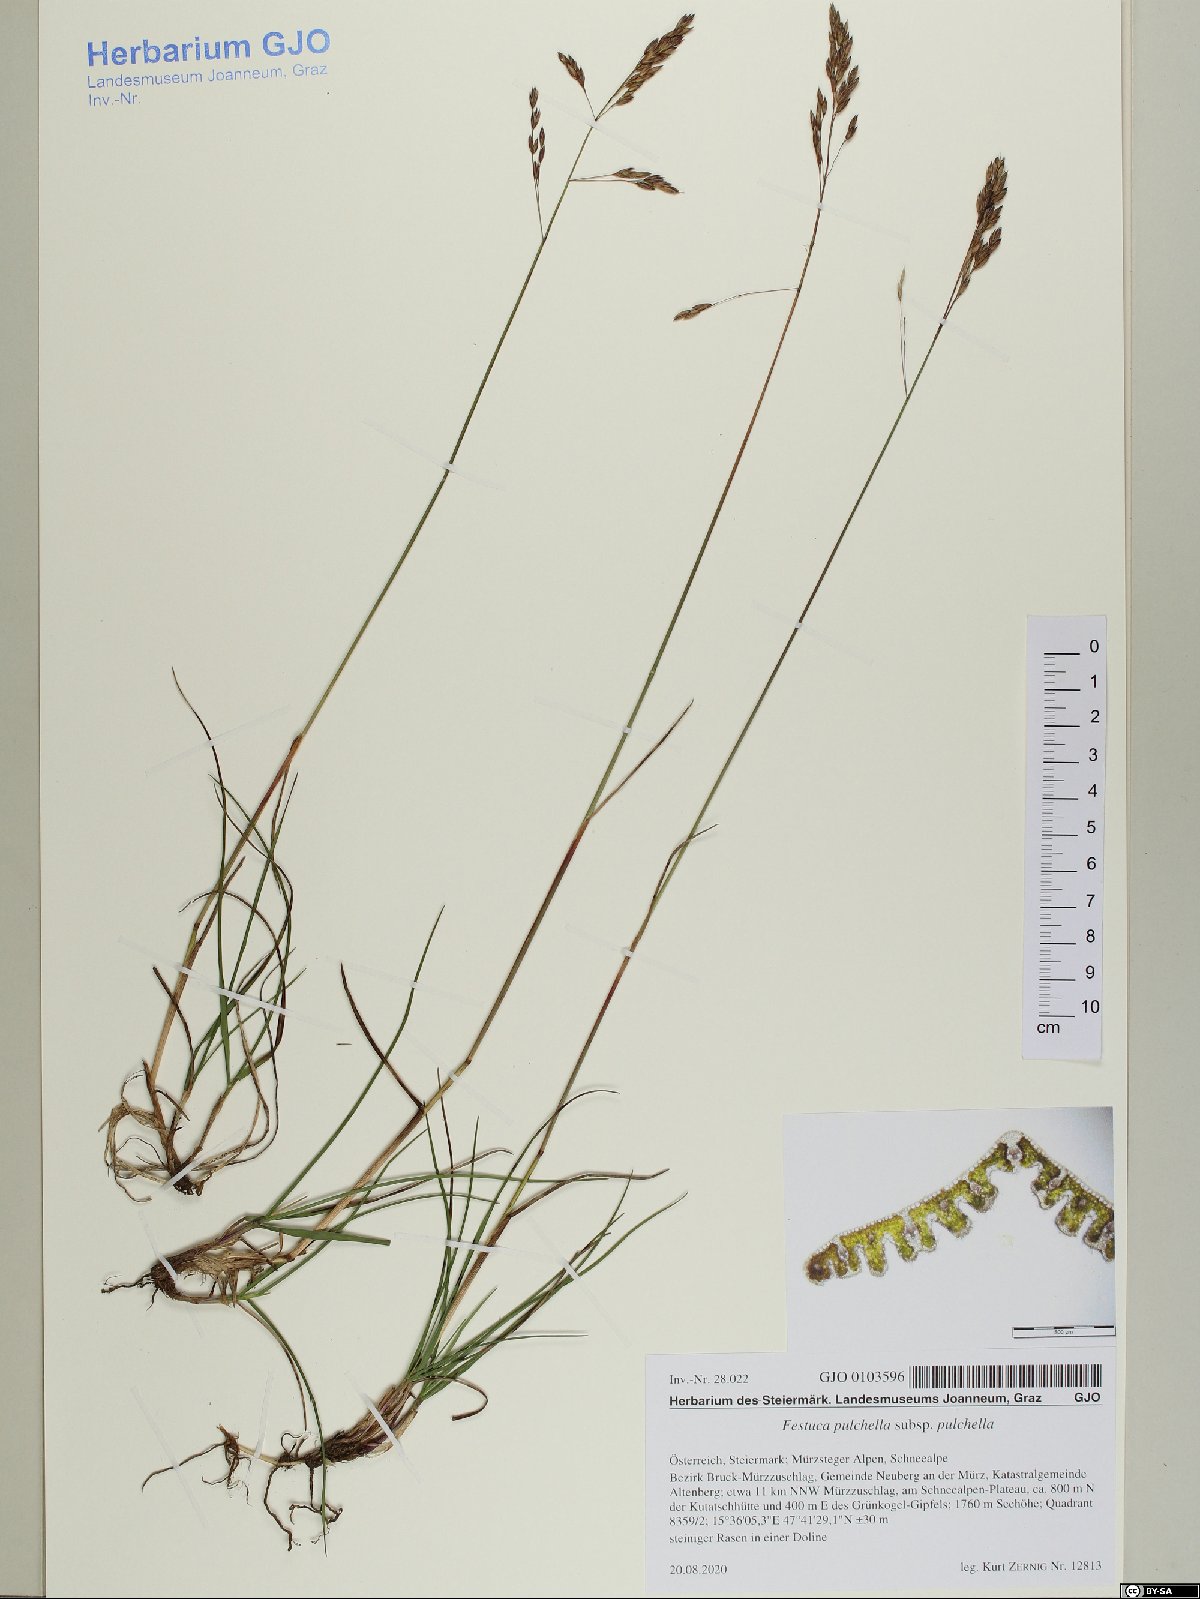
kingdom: Plantae
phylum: Tracheophyta
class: Liliopsida
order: Poales
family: Poaceae
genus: Festuca
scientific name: Festuca pulchella
